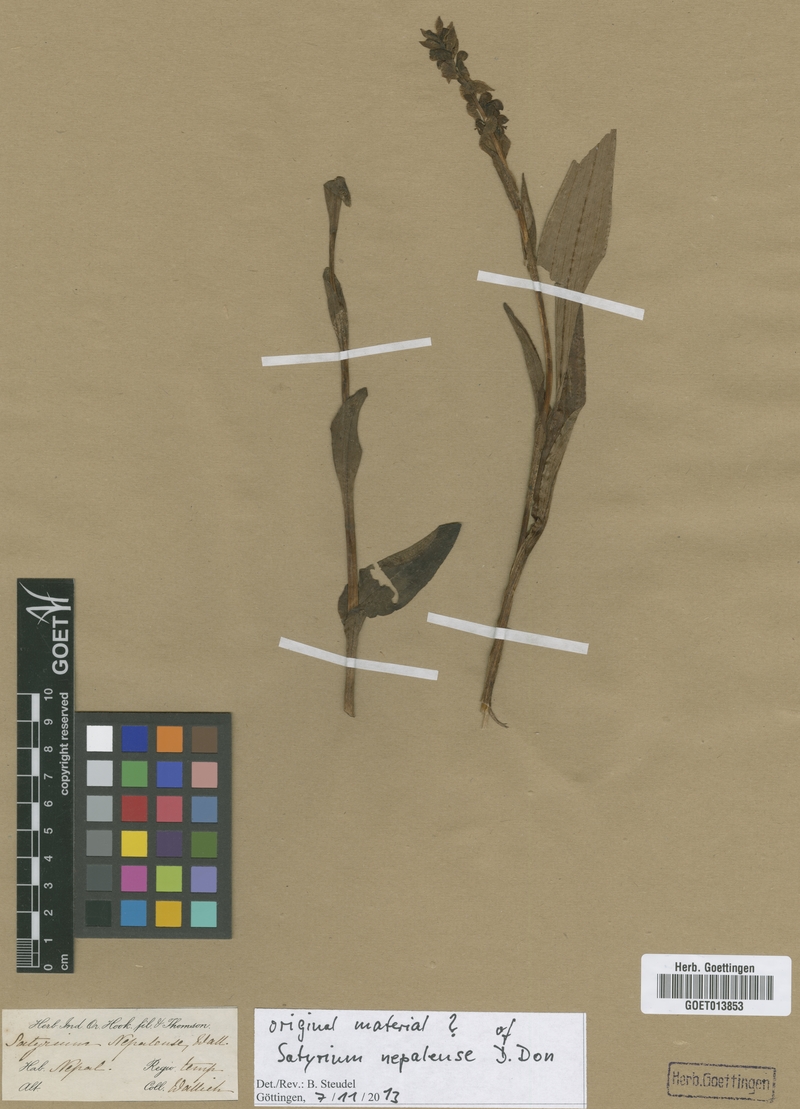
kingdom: Plantae
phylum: Tracheophyta
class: Liliopsida
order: Asparagales
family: Orchidaceae
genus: Satyrium
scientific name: Satyrium nepalense
